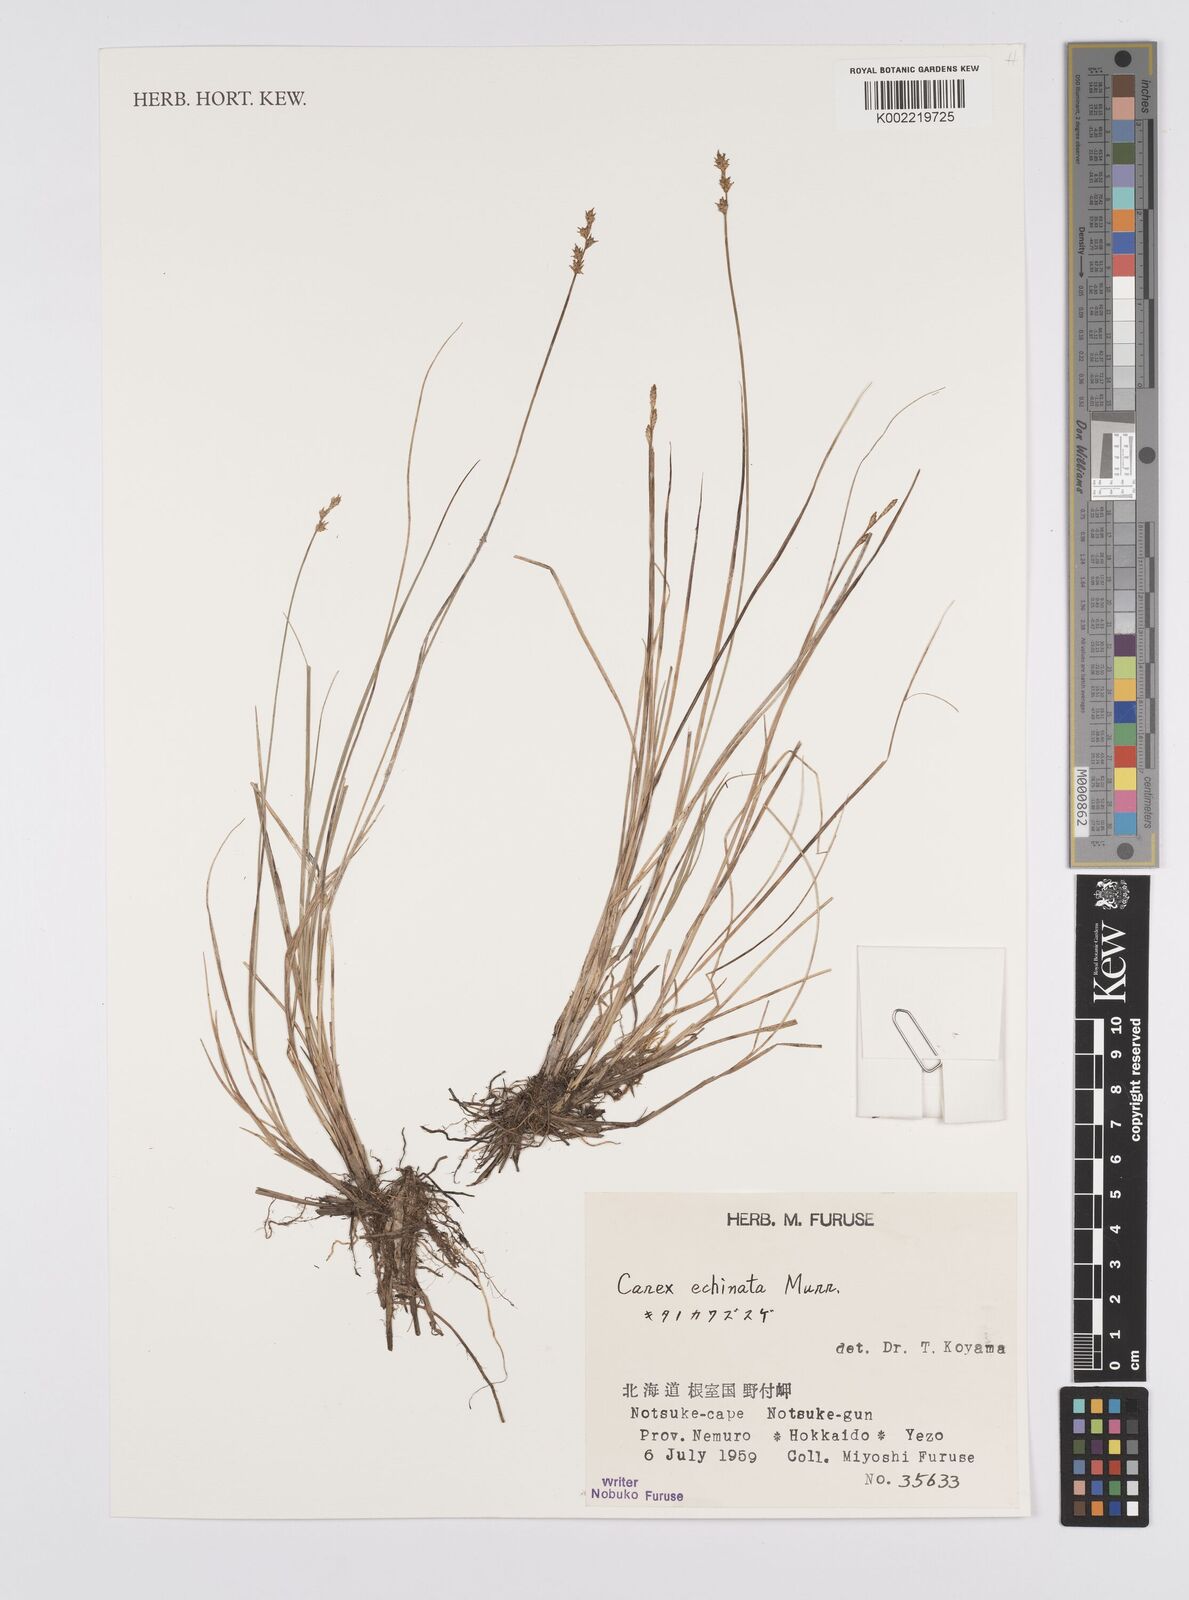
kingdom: Plantae
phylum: Tracheophyta
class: Liliopsida
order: Poales
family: Cyperaceae
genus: Carex
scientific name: Carex echinata
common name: Star sedge
